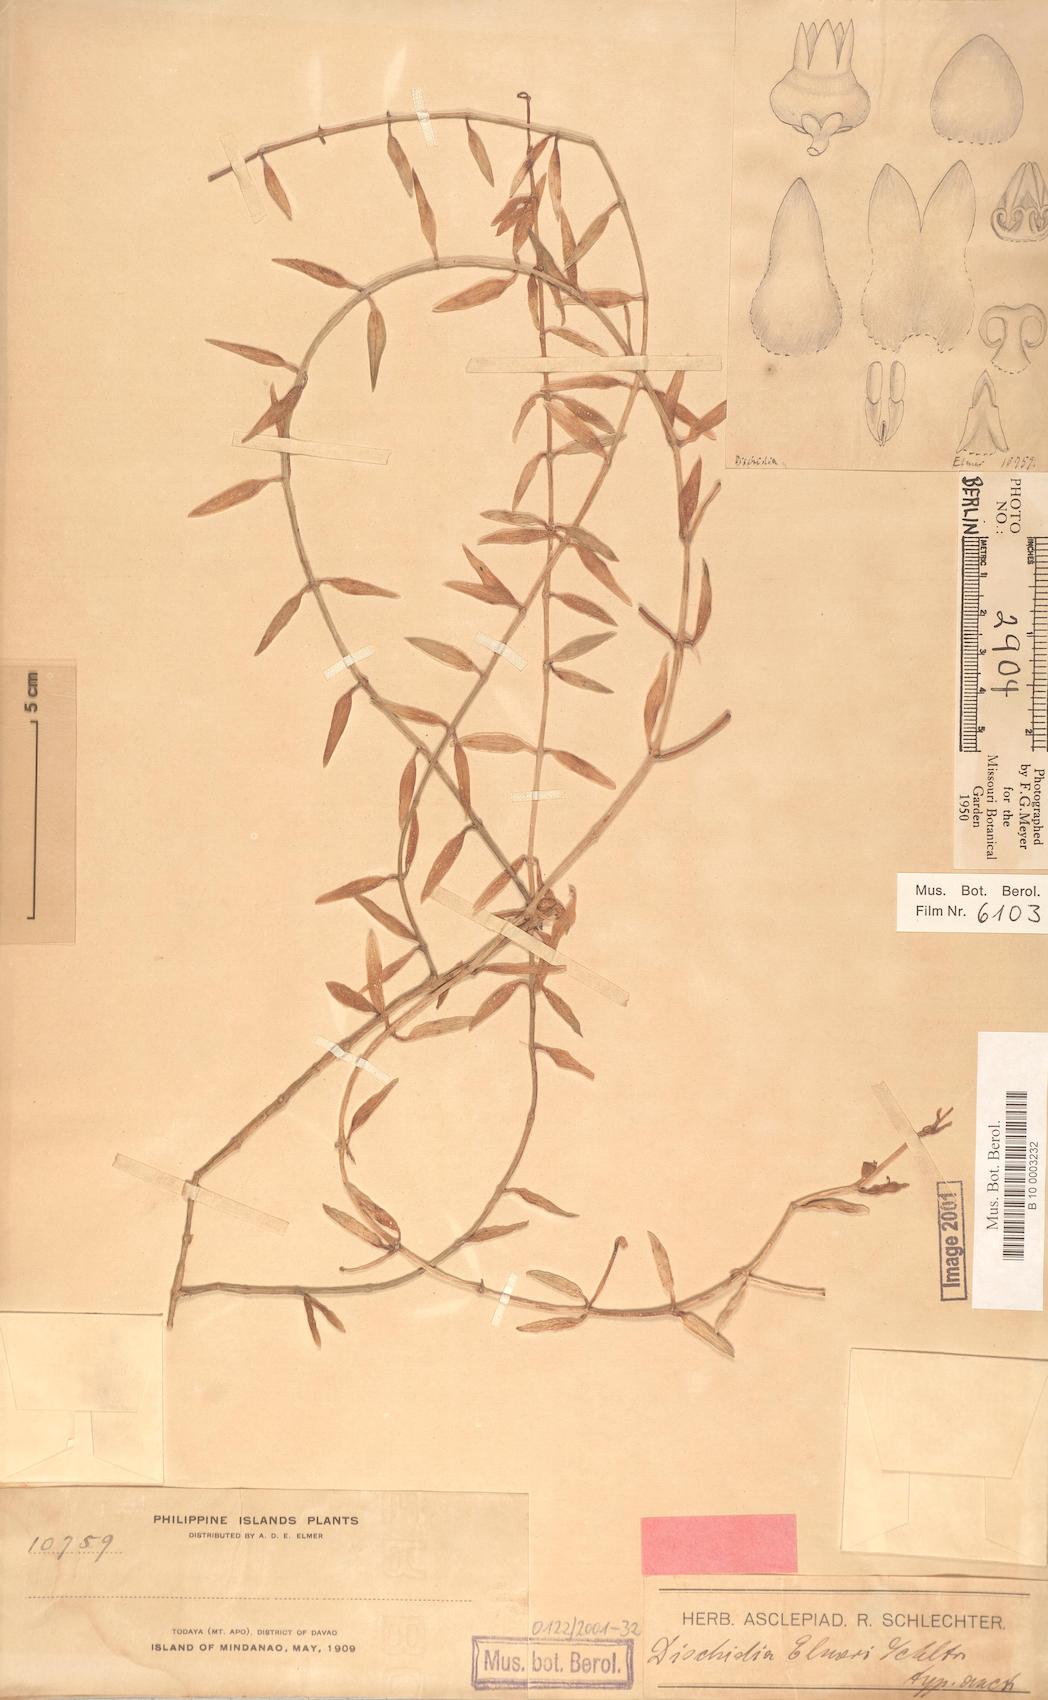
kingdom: Plantae
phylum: Tracheophyta
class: Magnoliopsida
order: Gentianales
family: Apocynaceae
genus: Dischidia
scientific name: Dischidia elmeri
